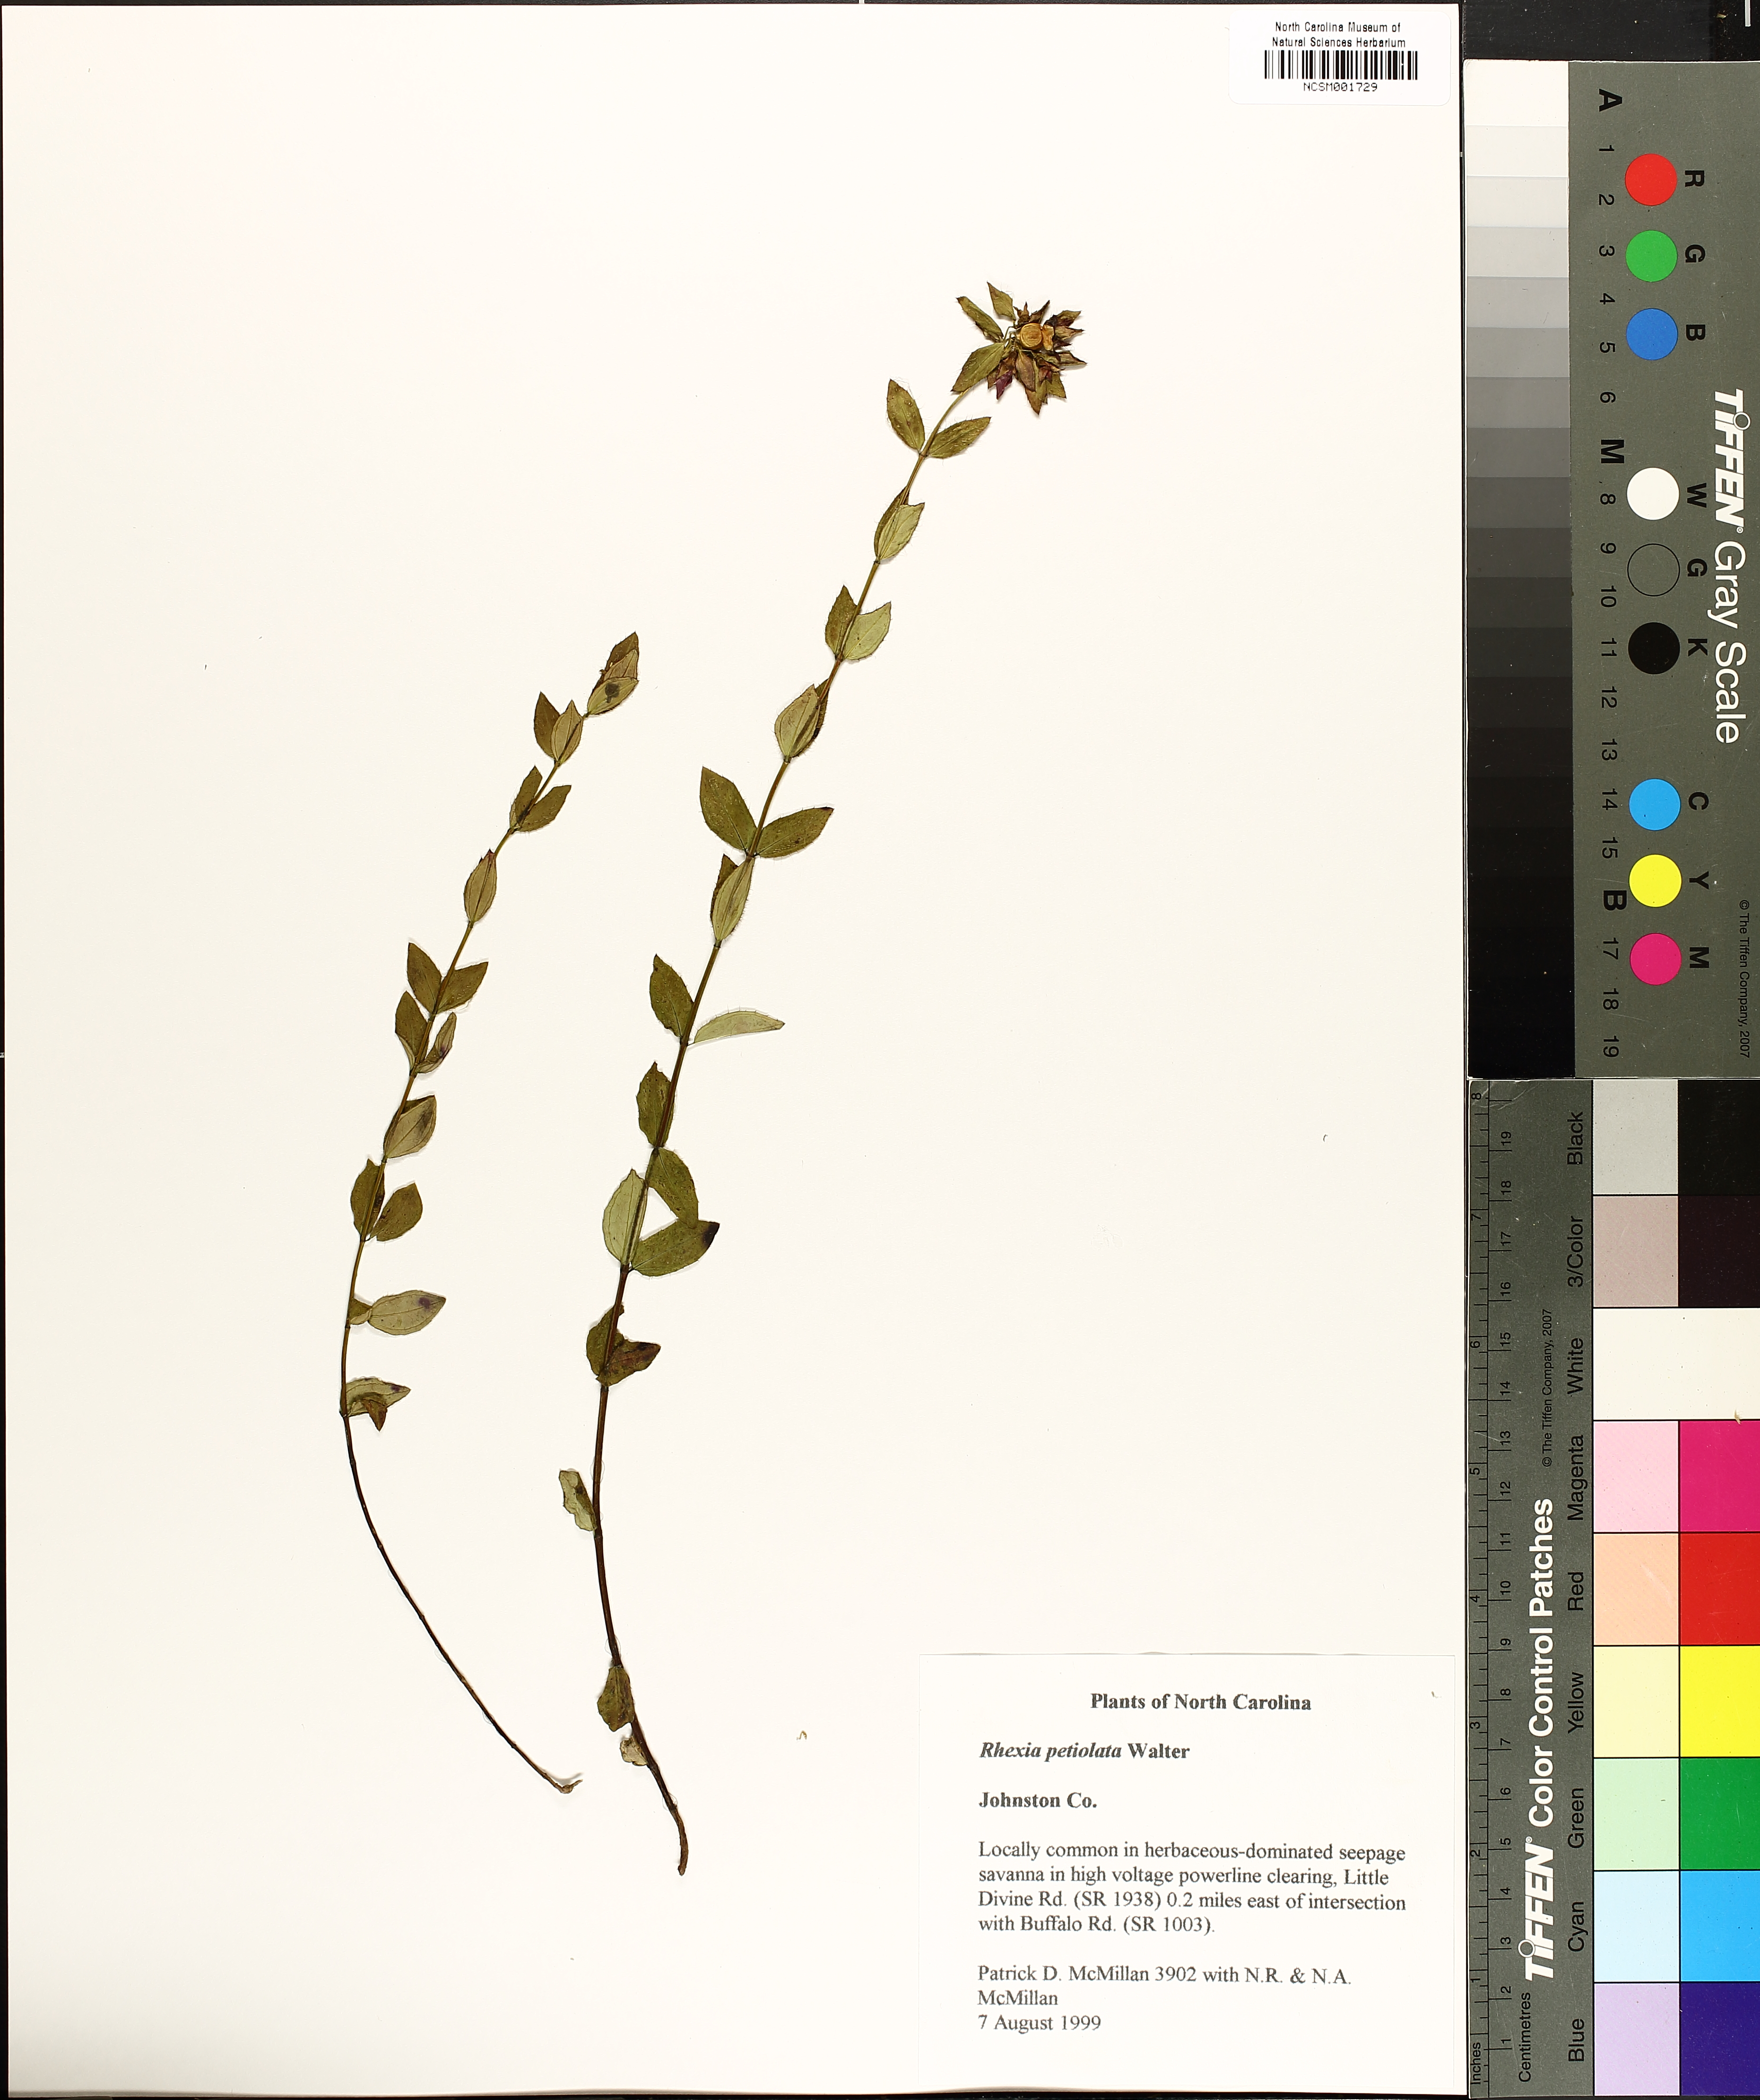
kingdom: Plantae
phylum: Tracheophyta
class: Magnoliopsida
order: Myrtales
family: Melastomataceae
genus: Rhexia
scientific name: Rhexia petiolata
